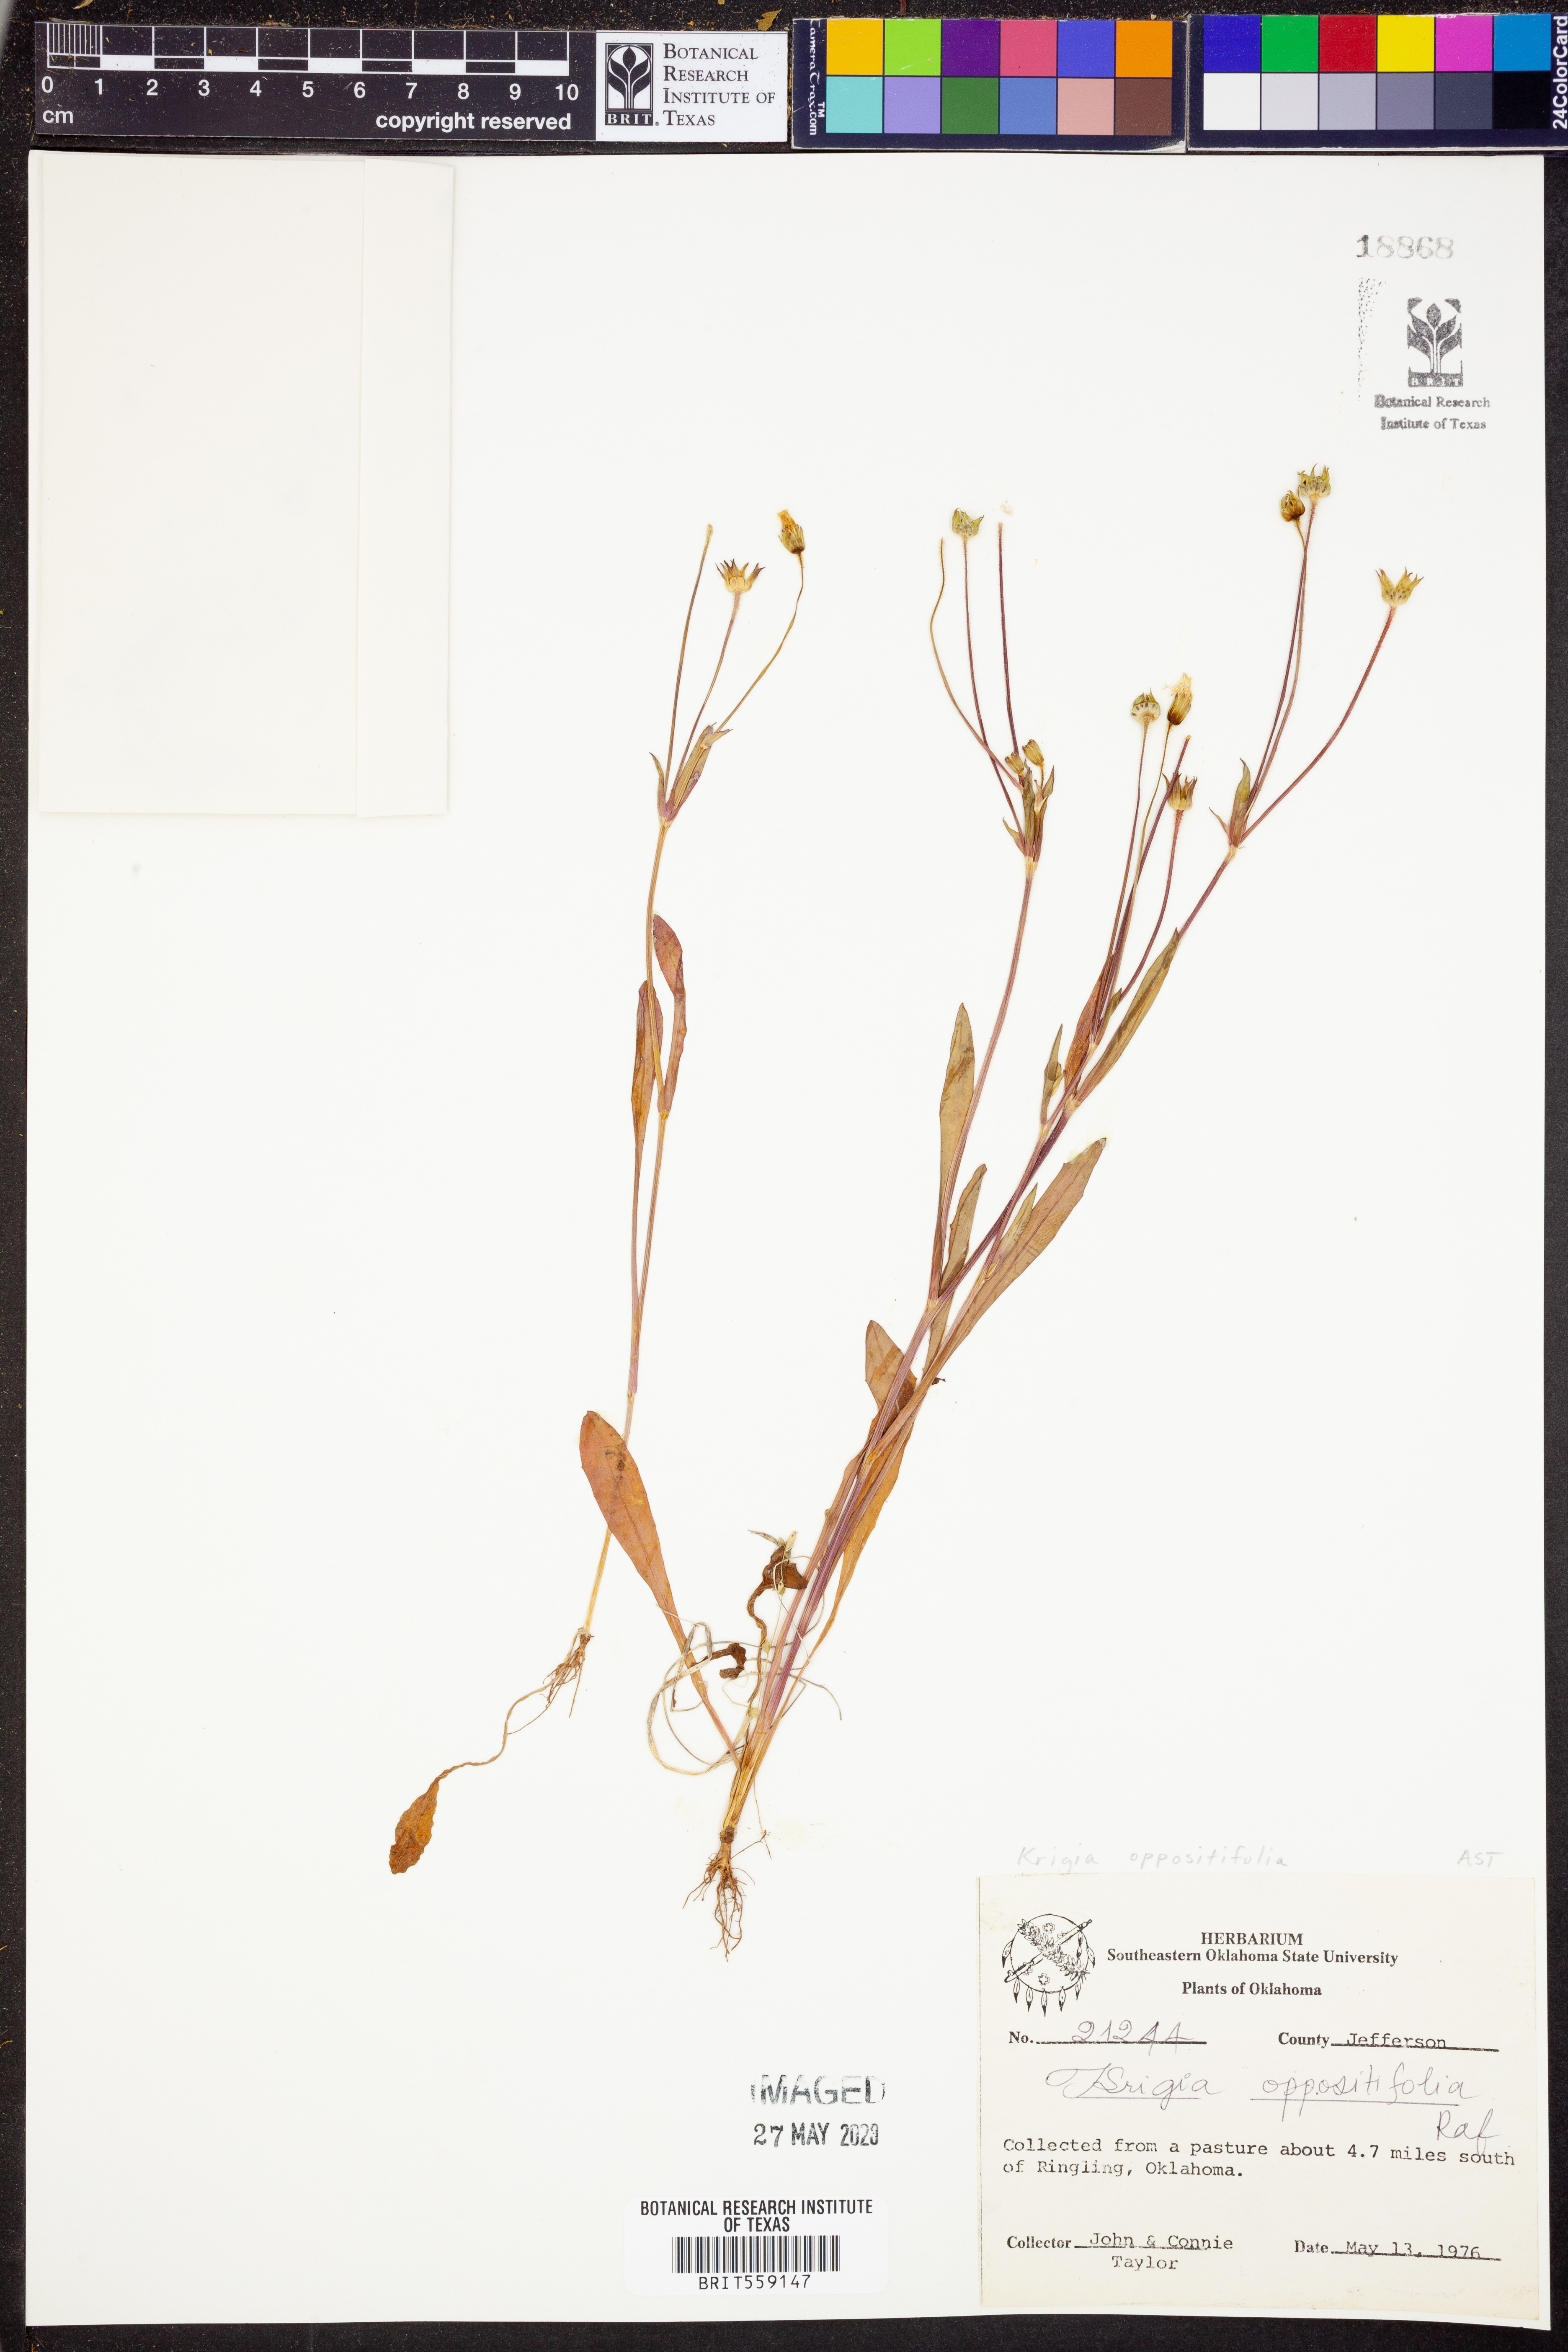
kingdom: Plantae
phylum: Tracheophyta
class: Magnoliopsida
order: Asterales
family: Asteraceae
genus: Krigia
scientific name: Krigia cespitosa
